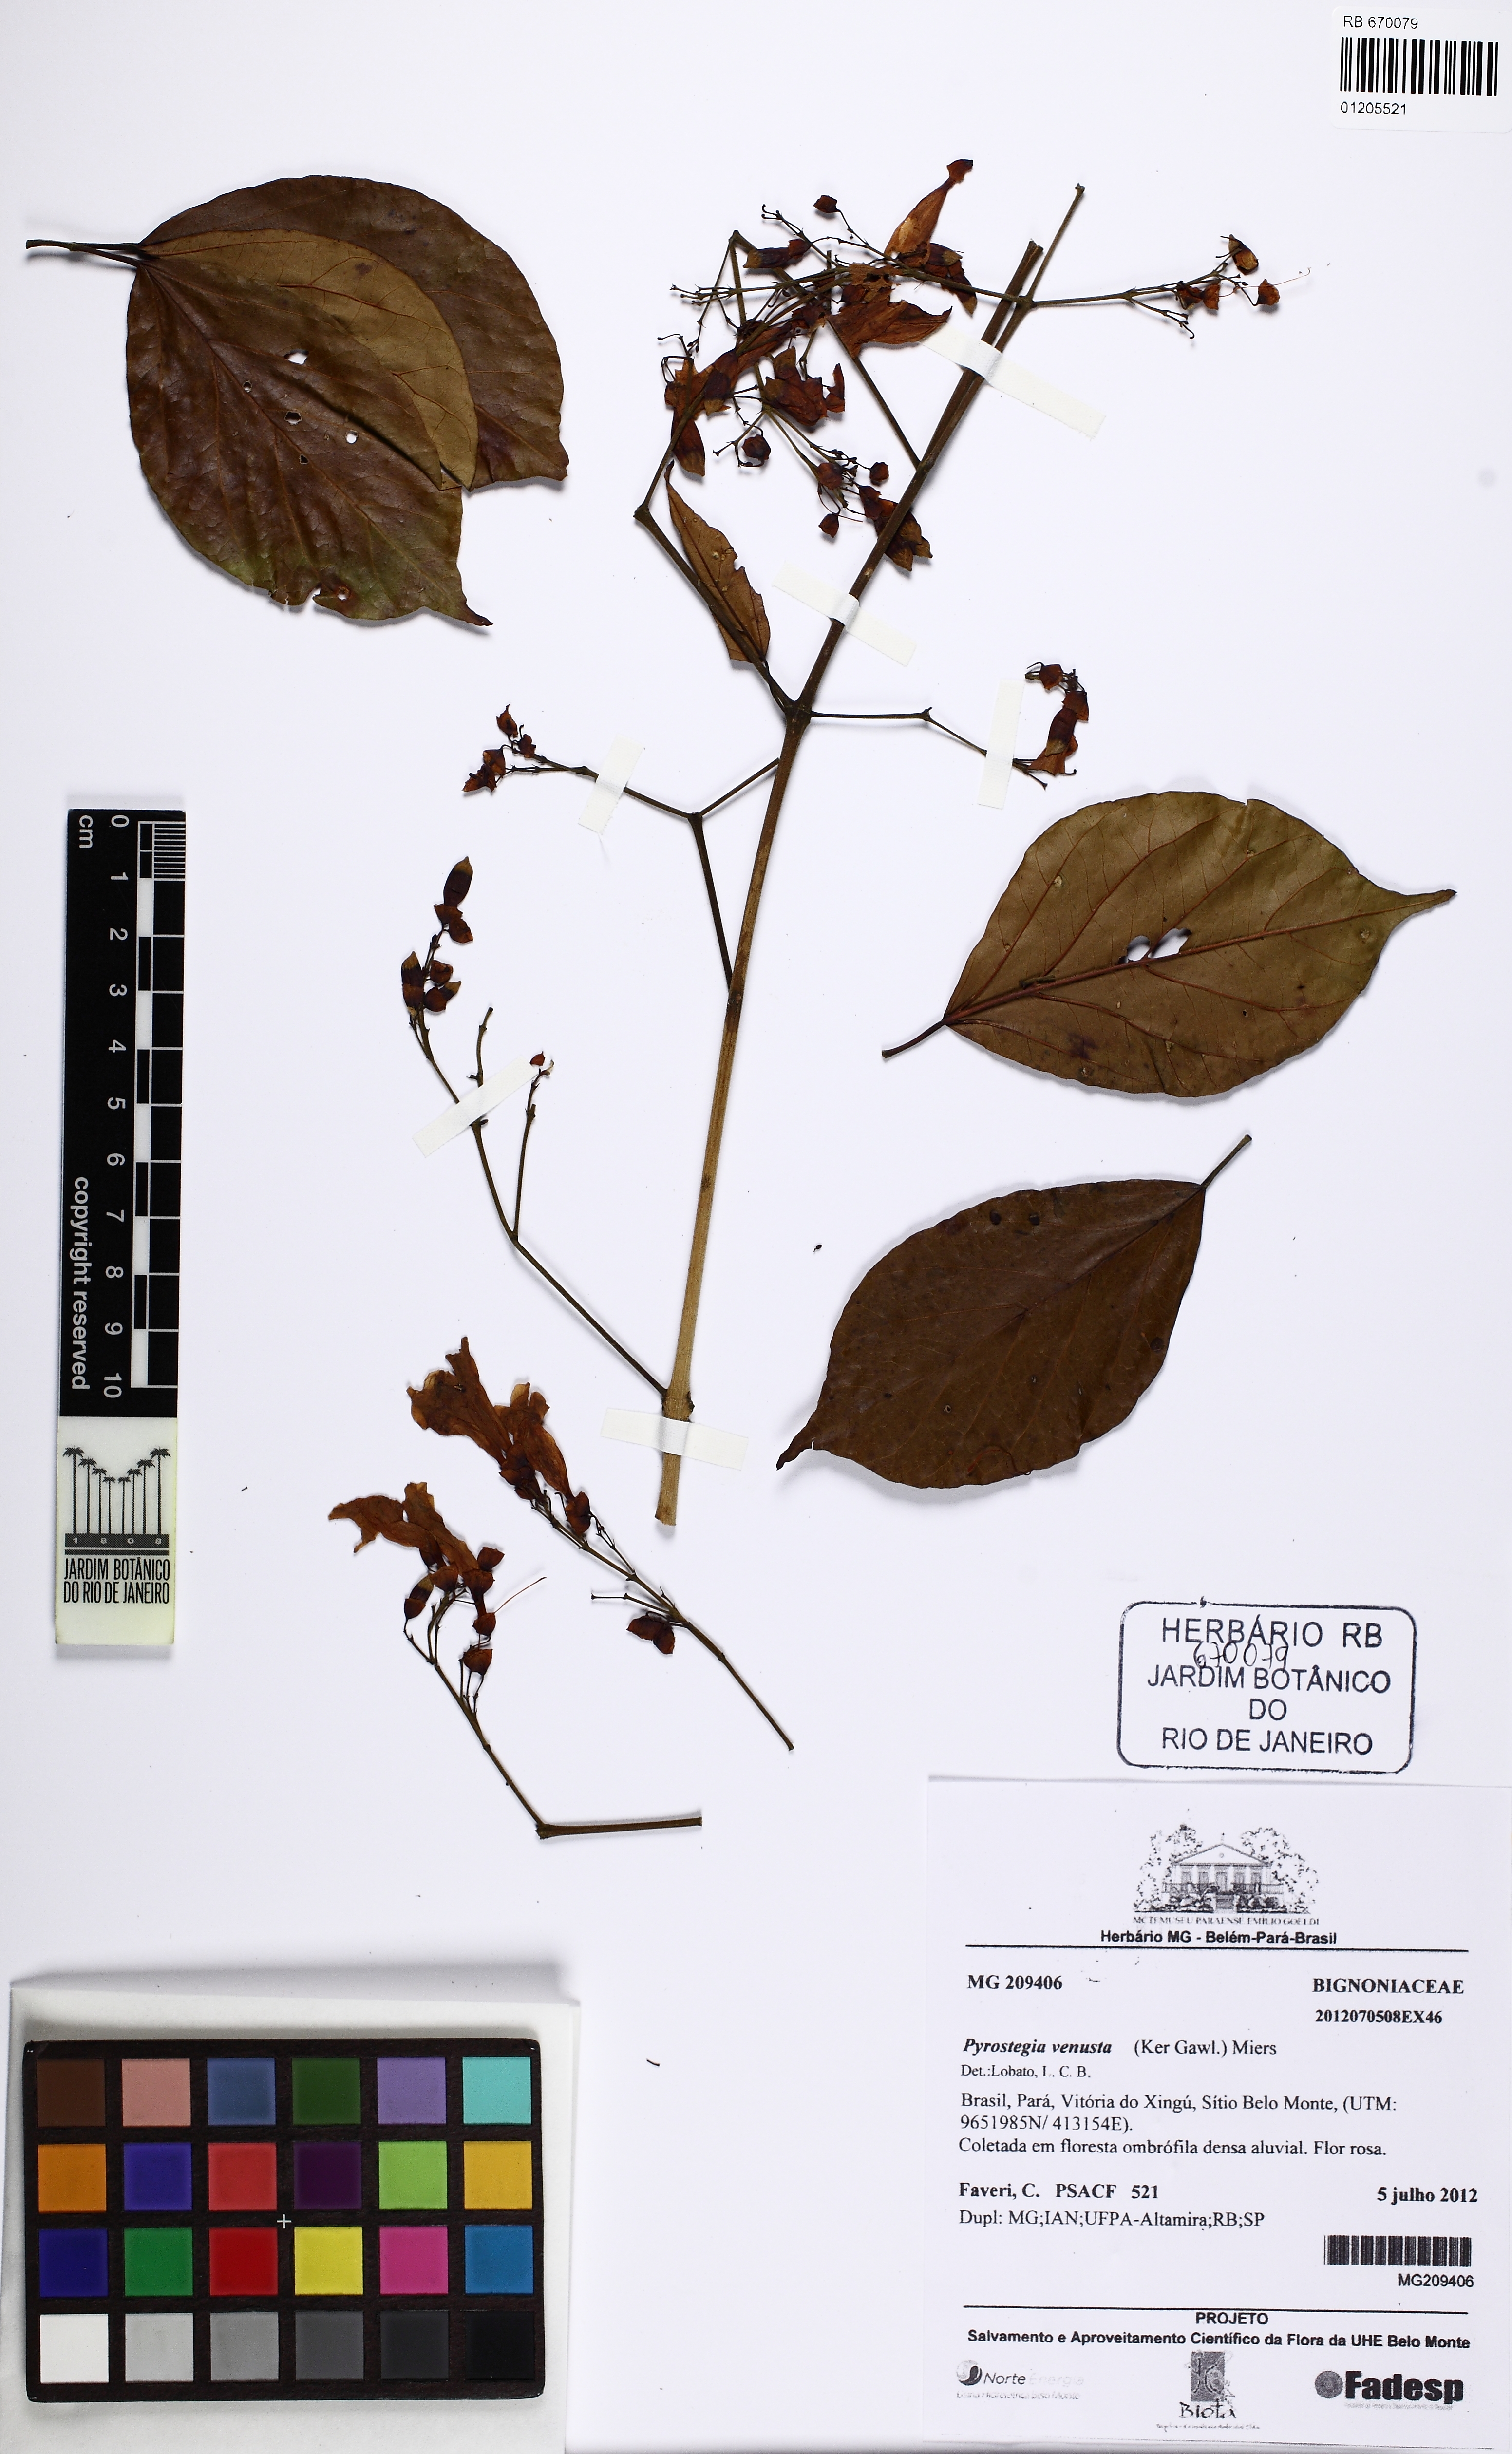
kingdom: Plantae
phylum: Tracheophyta
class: Magnoliopsida
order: Lamiales
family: Bignoniaceae
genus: Pyrostegia
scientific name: Pyrostegia venusta
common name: Flamevine
